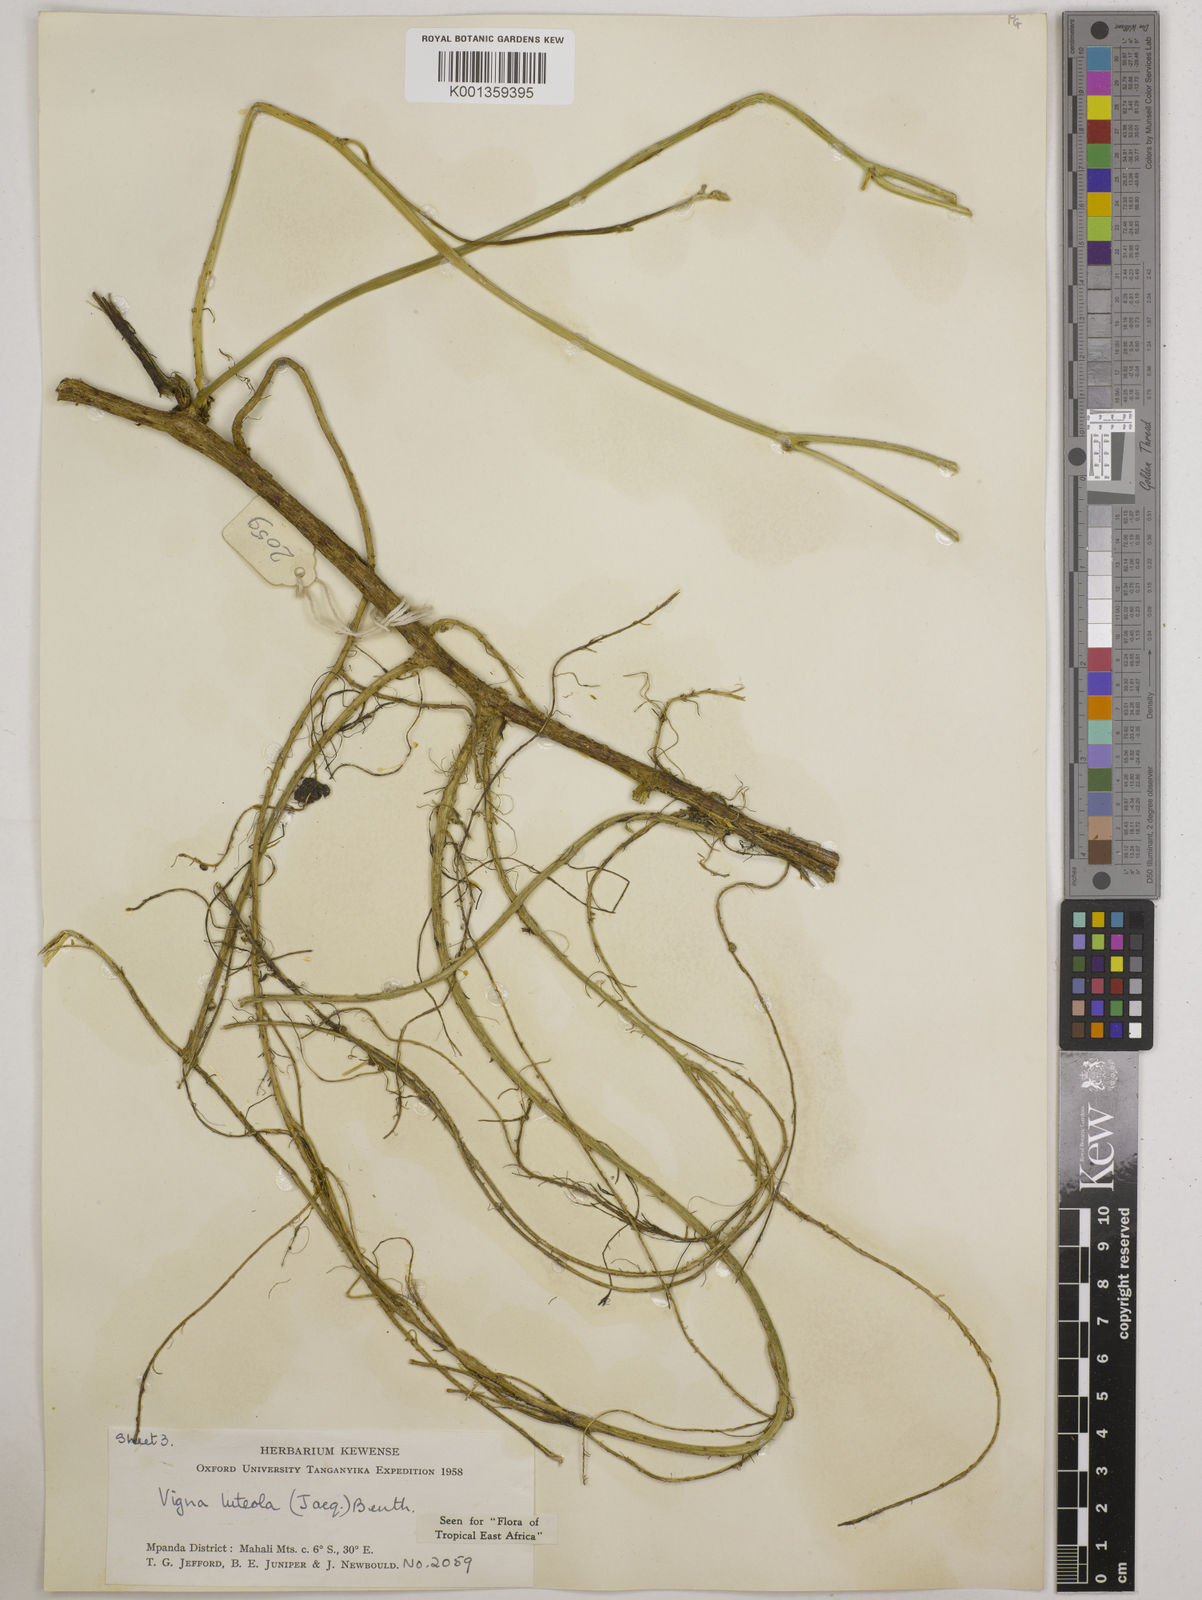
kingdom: Plantae
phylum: Tracheophyta
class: Magnoliopsida
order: Fabales
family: Fabaceae
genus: Vigna
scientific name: Vigna luteola
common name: Hairypod cowpea
